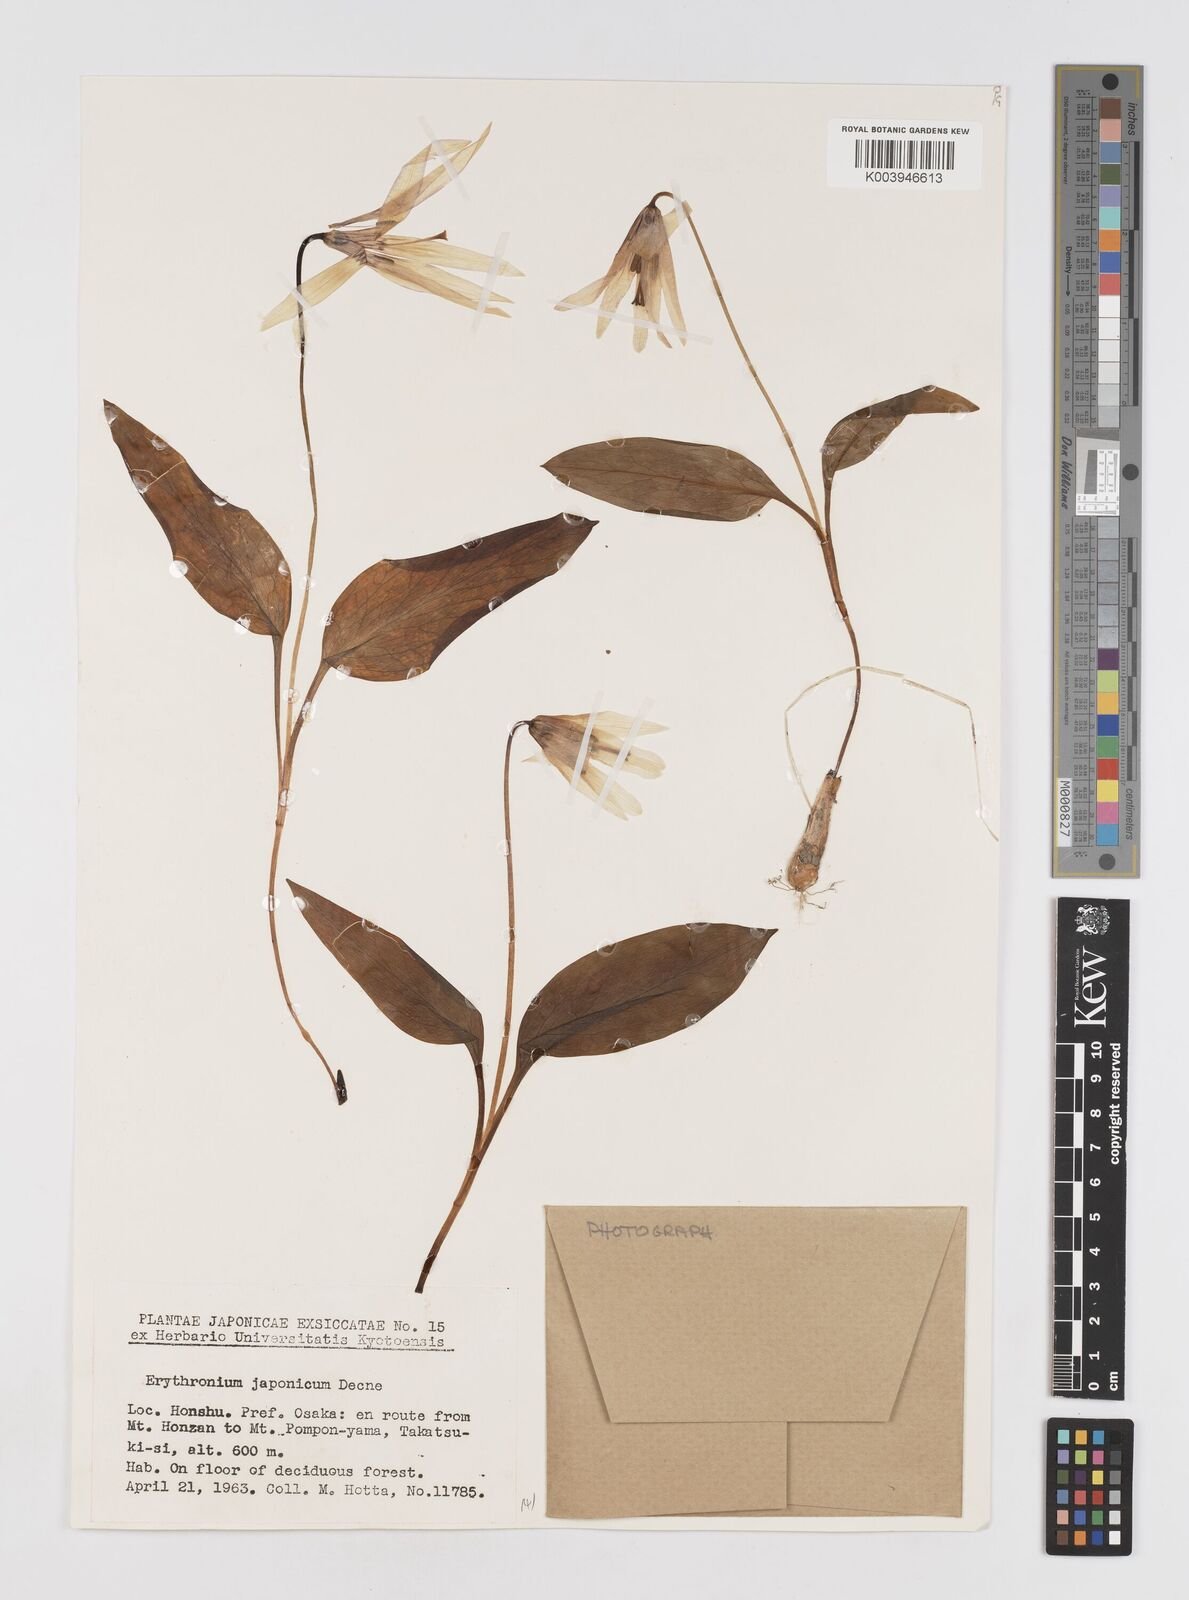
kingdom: Plantae
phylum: Tracheophyta
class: Liliopsida
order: Liliales
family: Liliaceae
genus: Erythronium
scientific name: Erythronium japonicum
